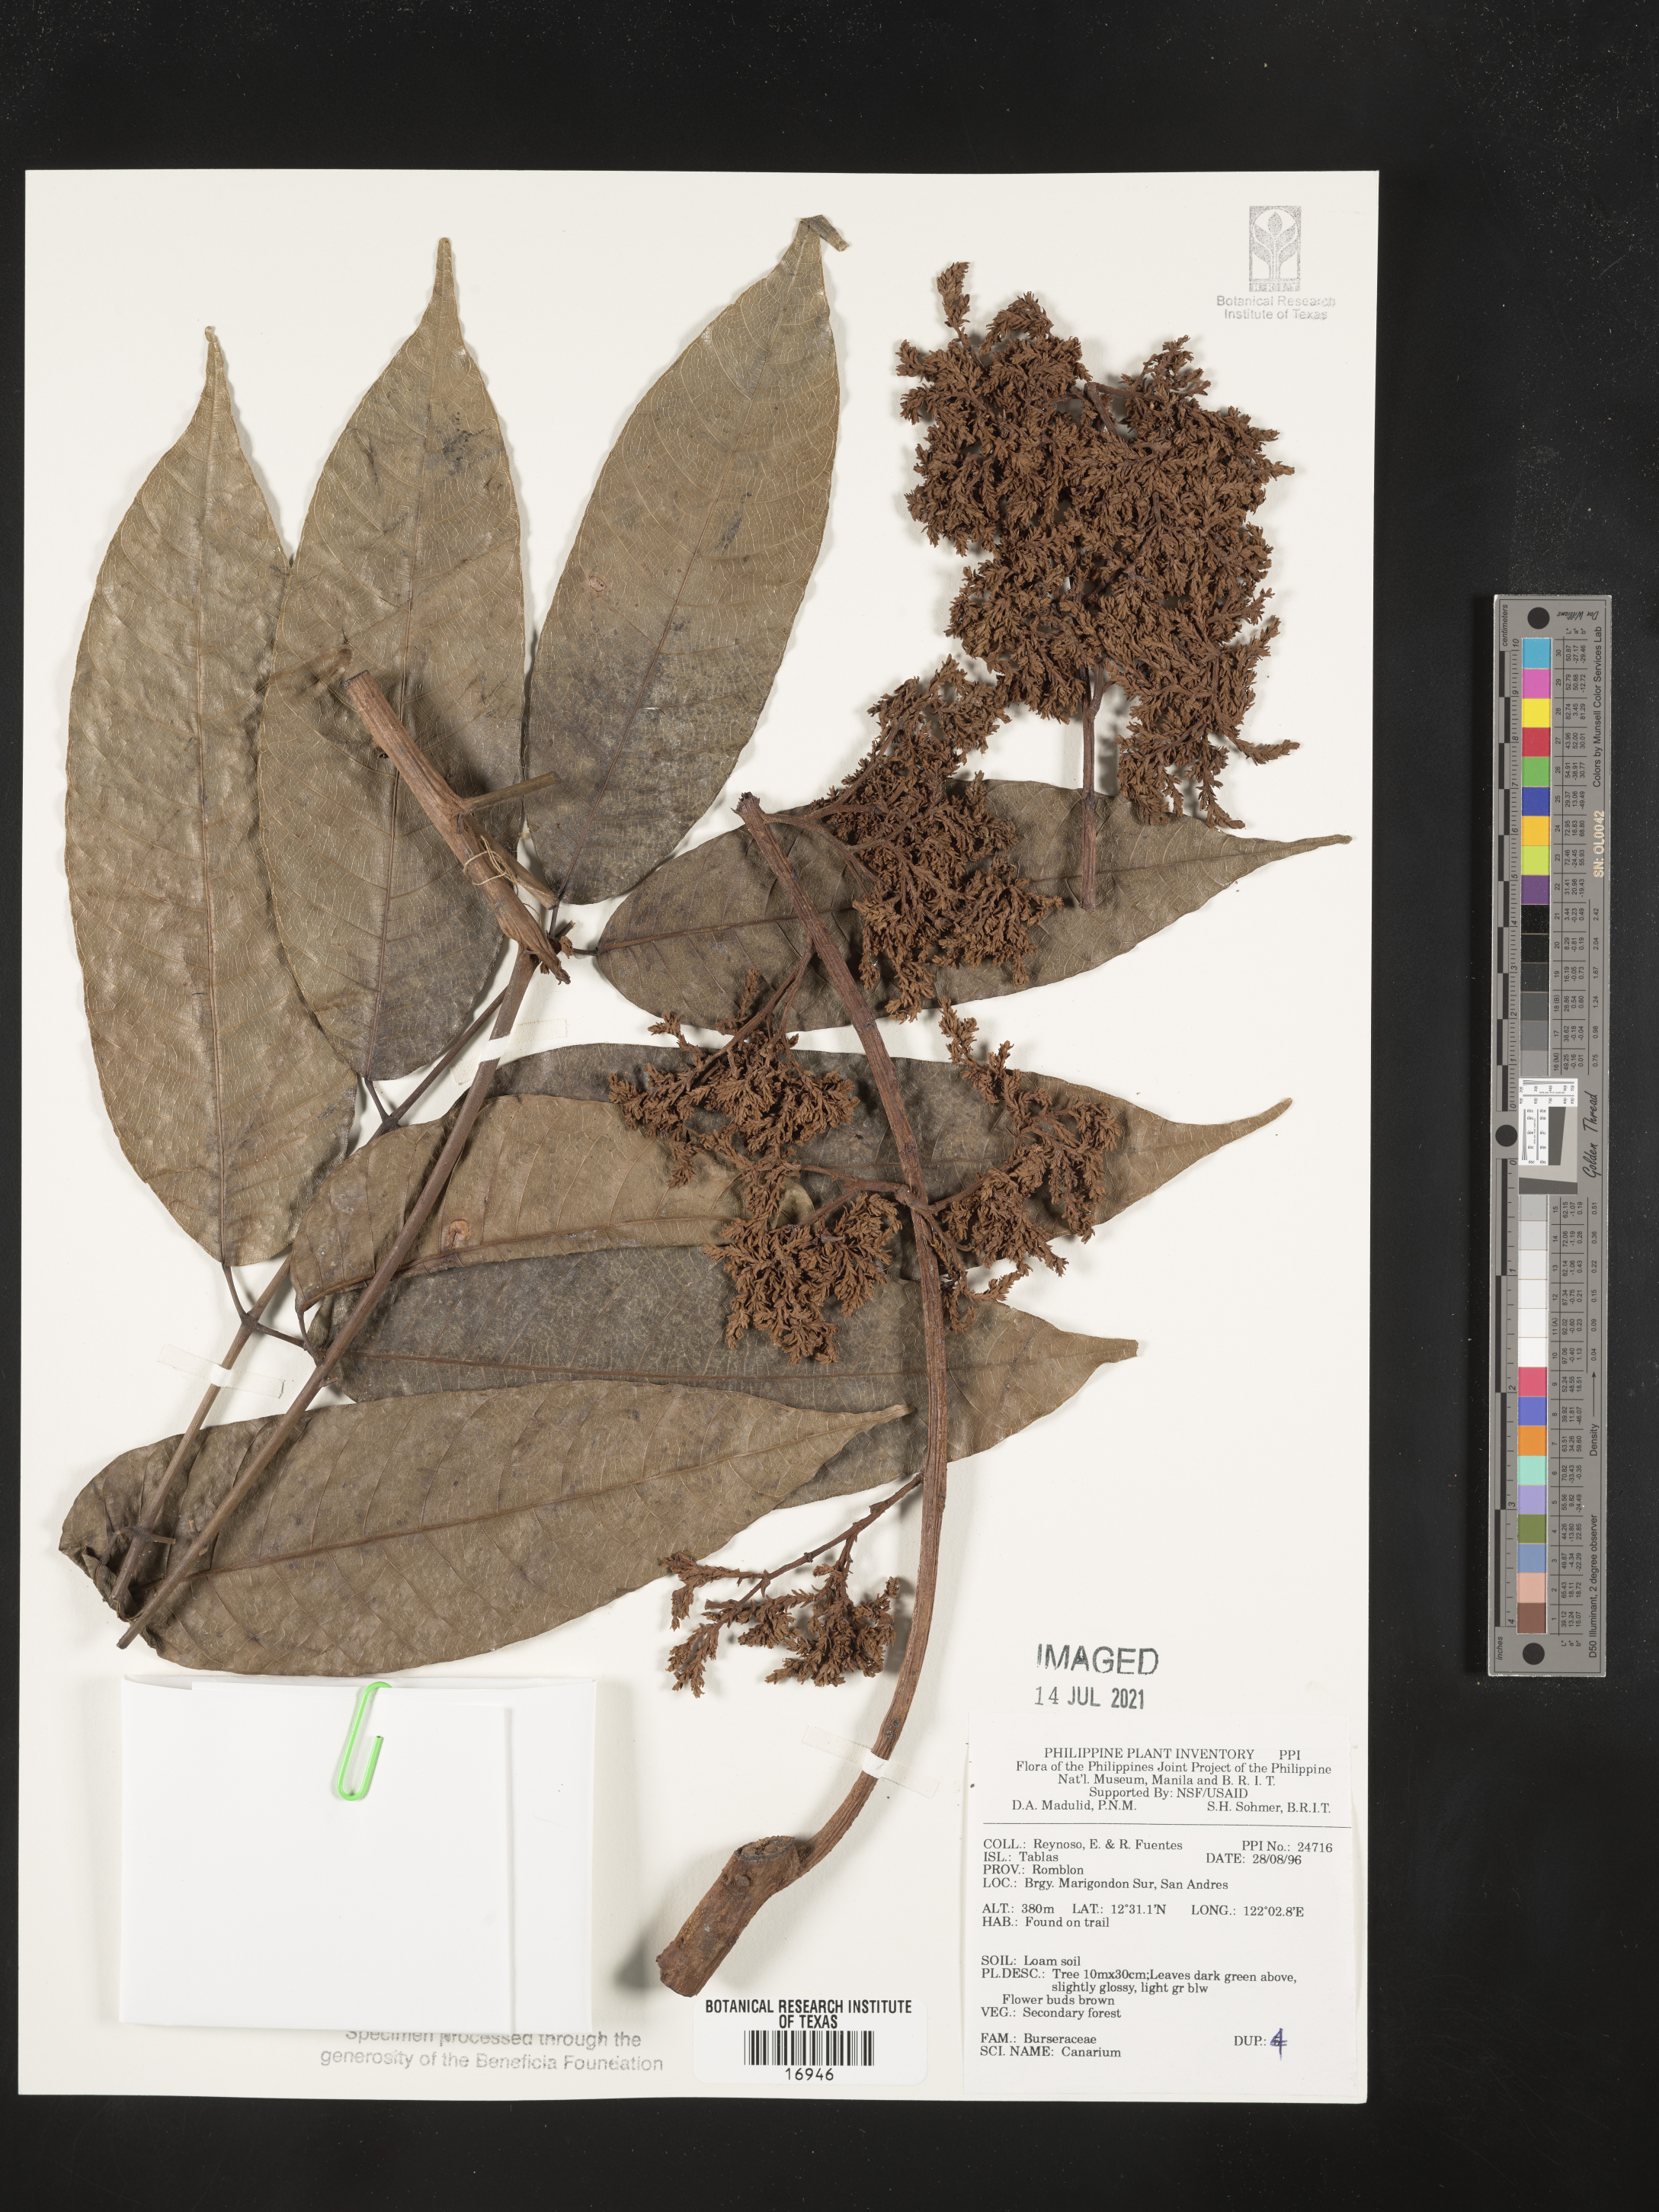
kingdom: Plantae
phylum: Tracheophyta
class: Magnoliopsida
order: Sapindales
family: Burseraceae
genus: Canarium
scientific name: Canarium
